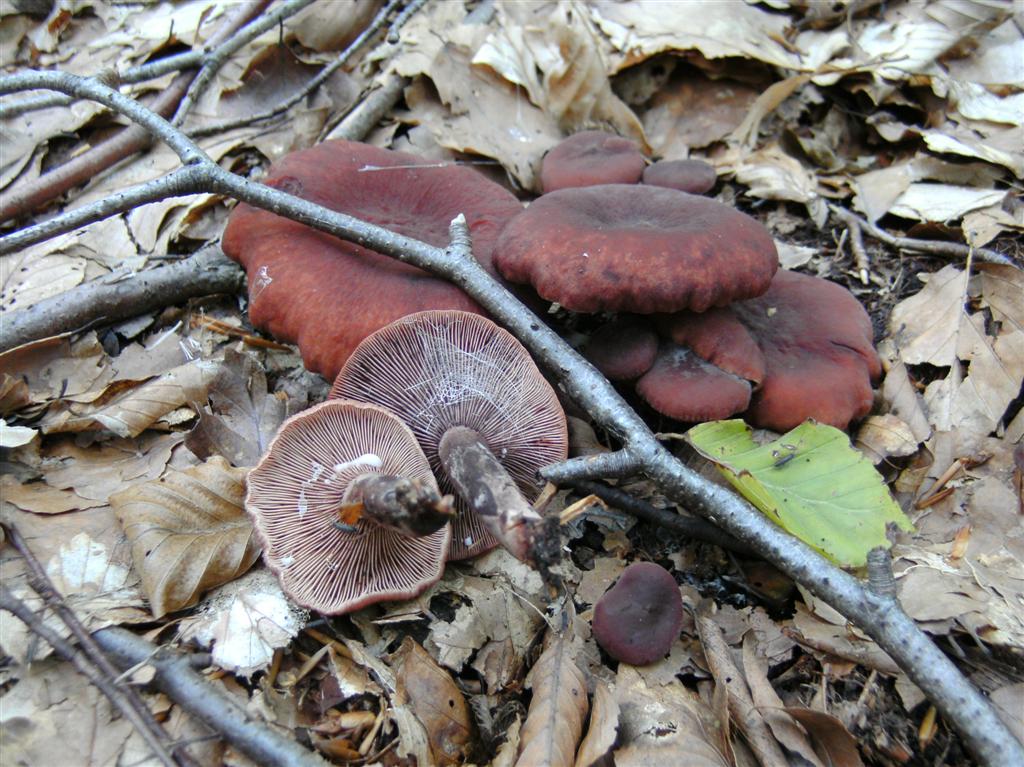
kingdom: Fungi
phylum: Basidiomycota
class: Agaricomycetes
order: Russulales
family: Russulaceae
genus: Lactarius
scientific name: Lactarius camphoratus
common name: kamfer-mælkehat
